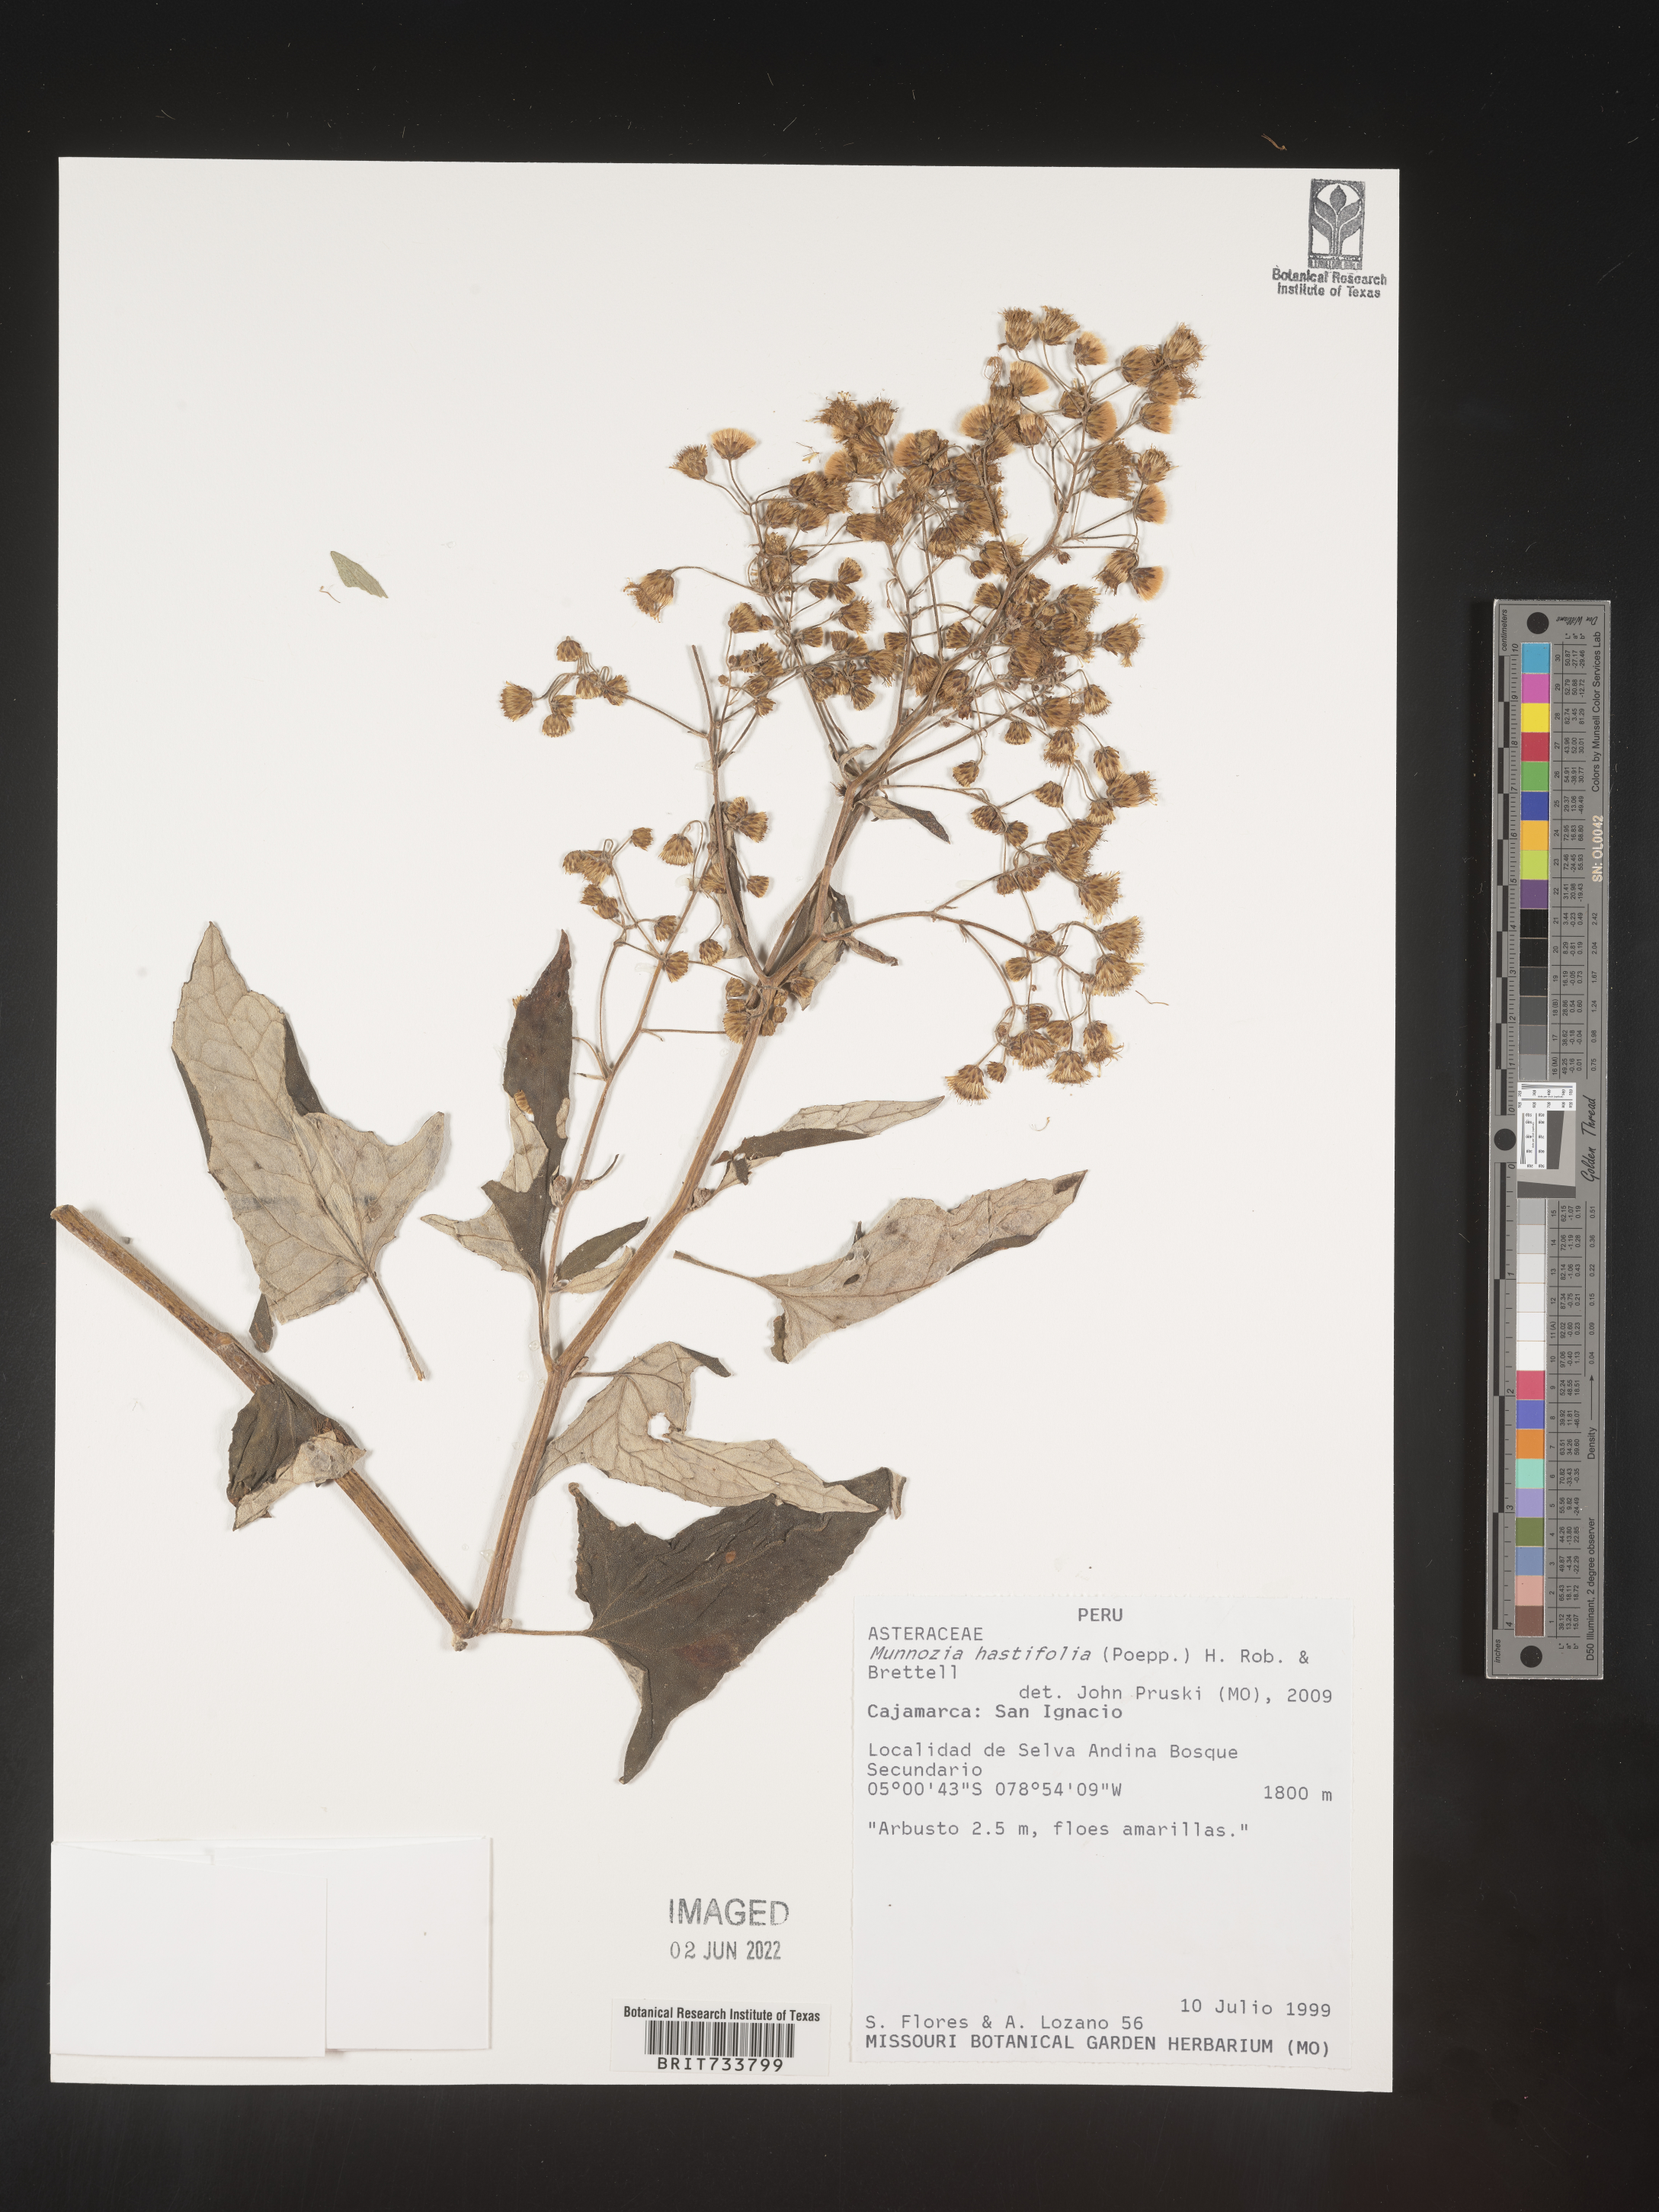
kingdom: Plantae
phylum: Tracheophyta
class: Magnoliopsida
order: Asterales
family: Asteraceae
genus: Munnozia
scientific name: Munnozia
